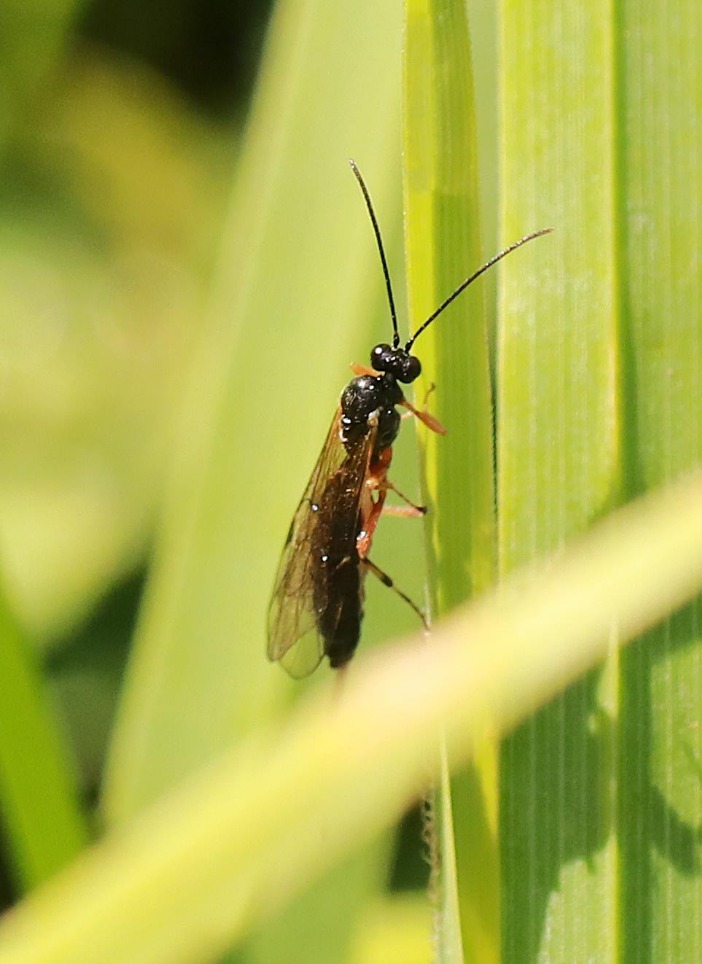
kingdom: Animalia
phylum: Arthropoda
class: Insecta
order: Hymenoptera
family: Ichneumonidae
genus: Scambus
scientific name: Scambus
